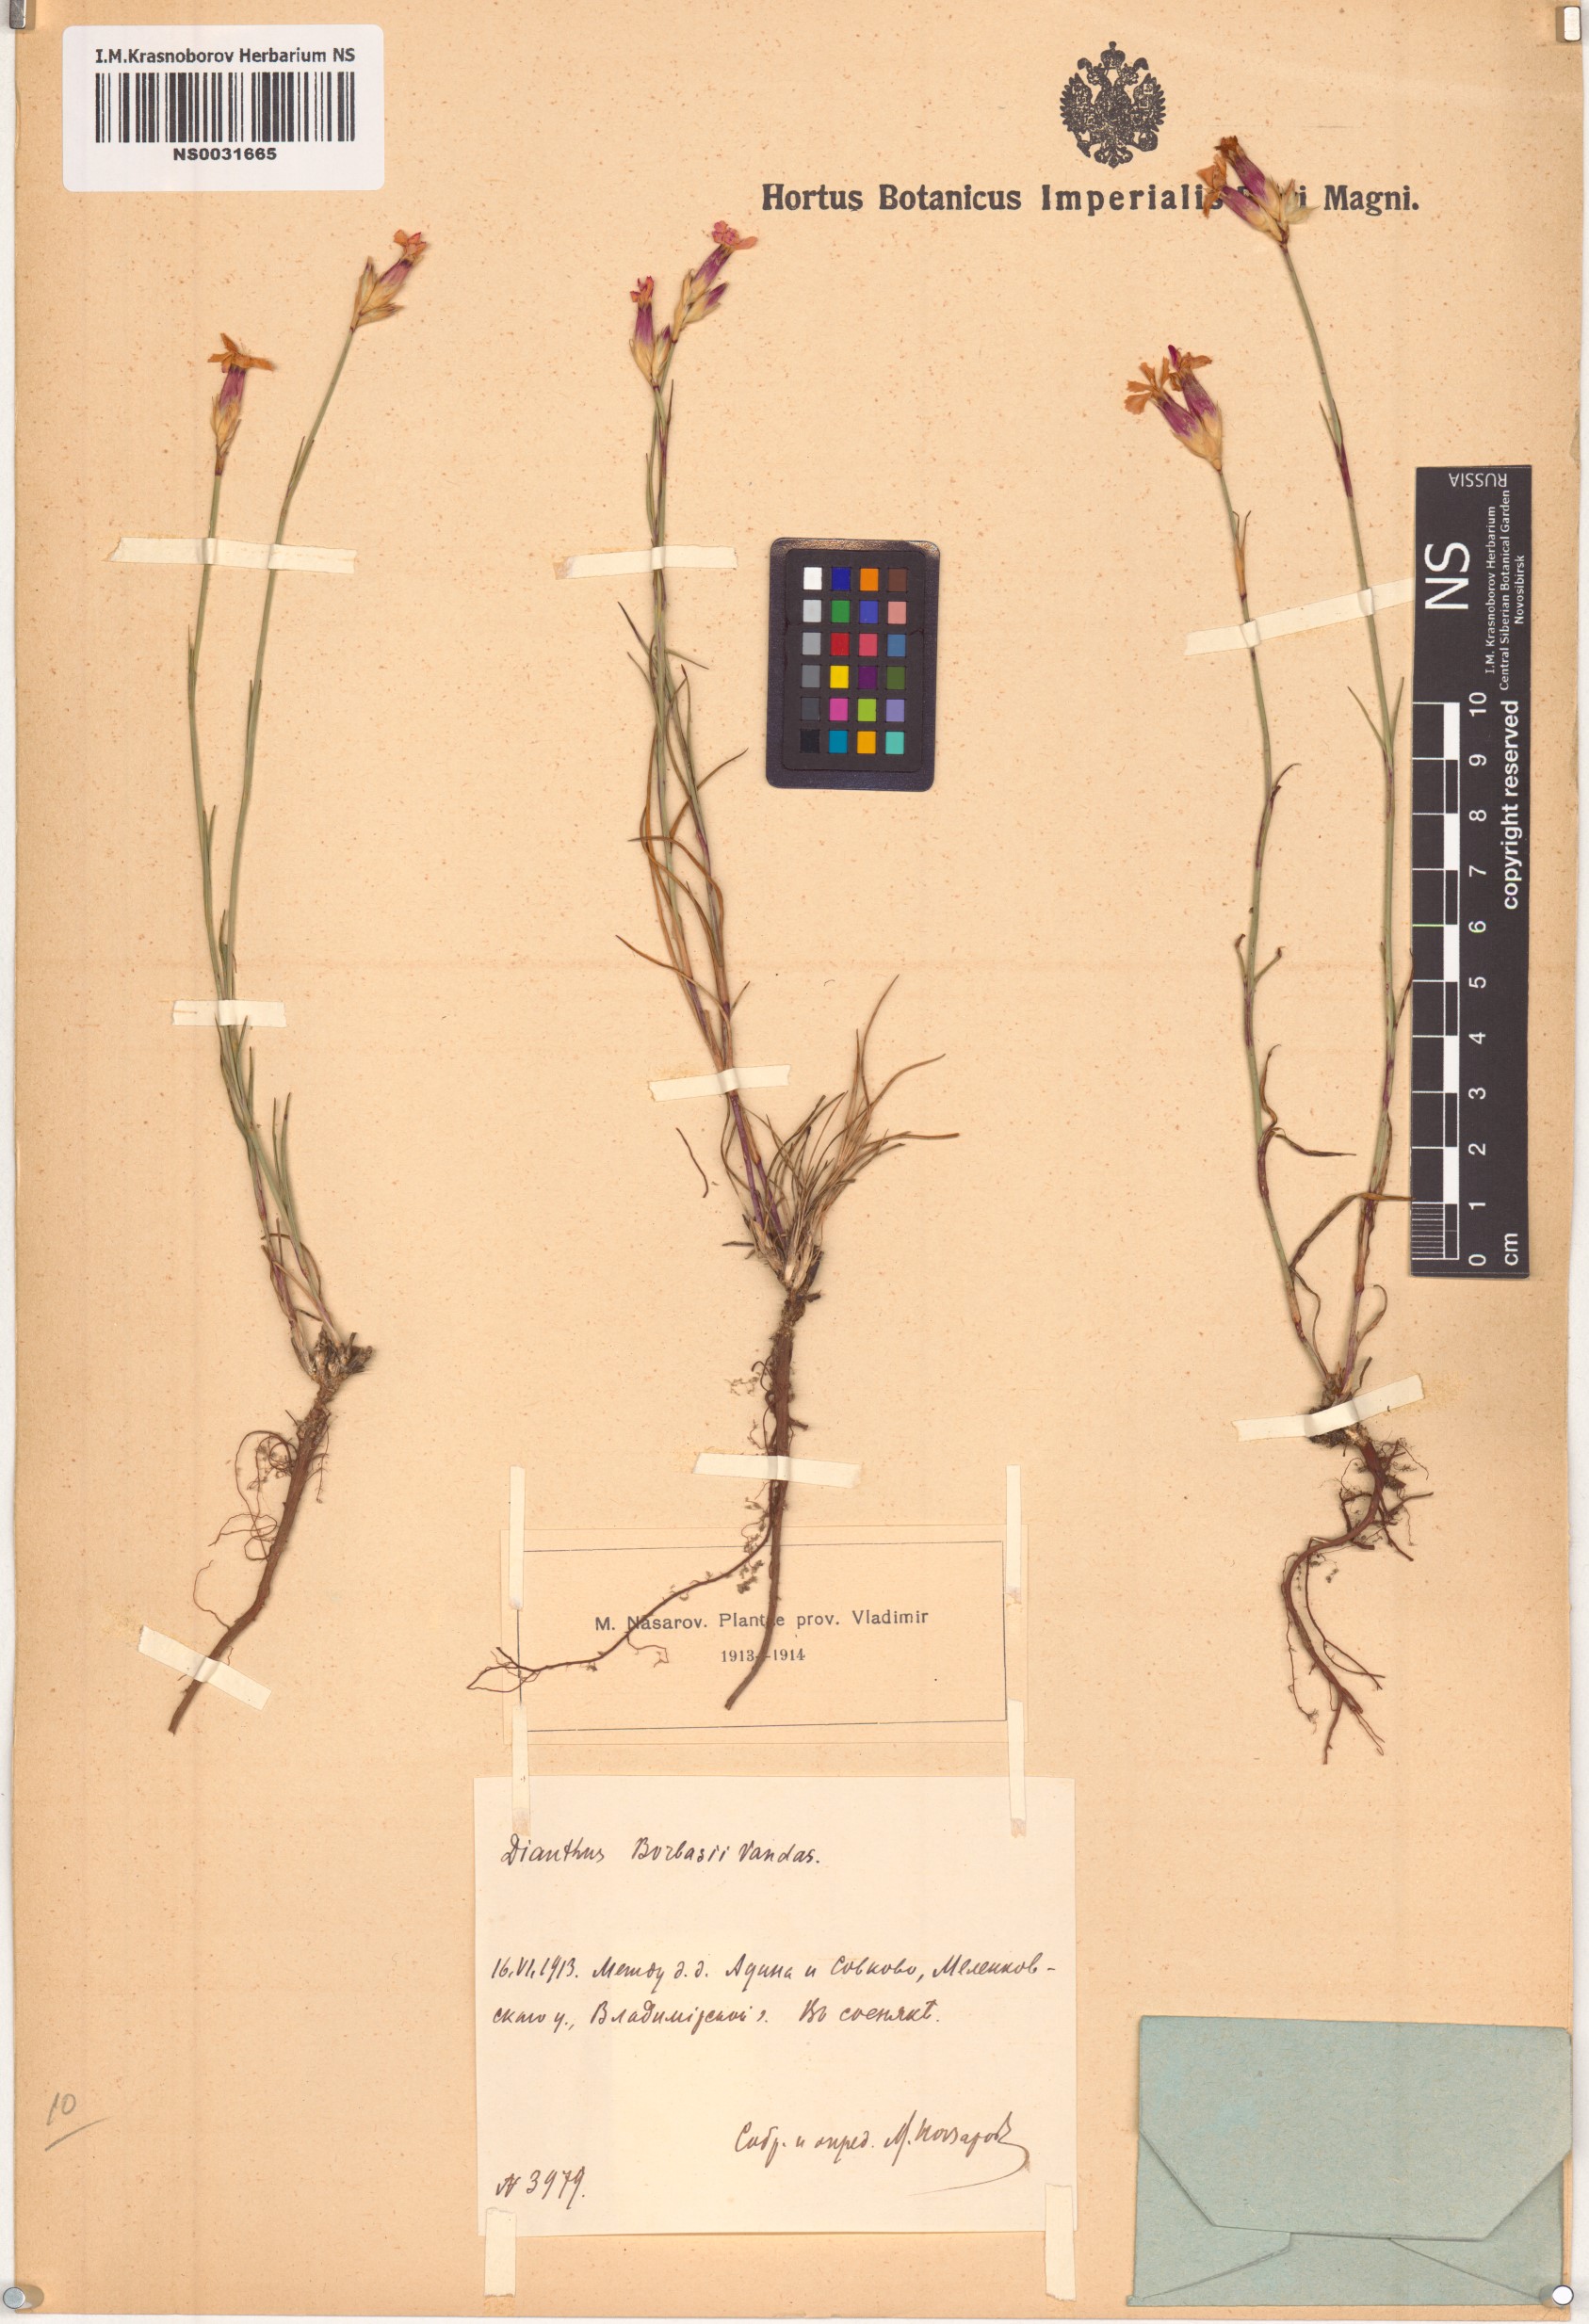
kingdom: Plantae
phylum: Tracheophyta
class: Magnoliopsida
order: Caryophyllales
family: Caryophyllaceae
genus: Dianthus
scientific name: Dianthus borbasii
